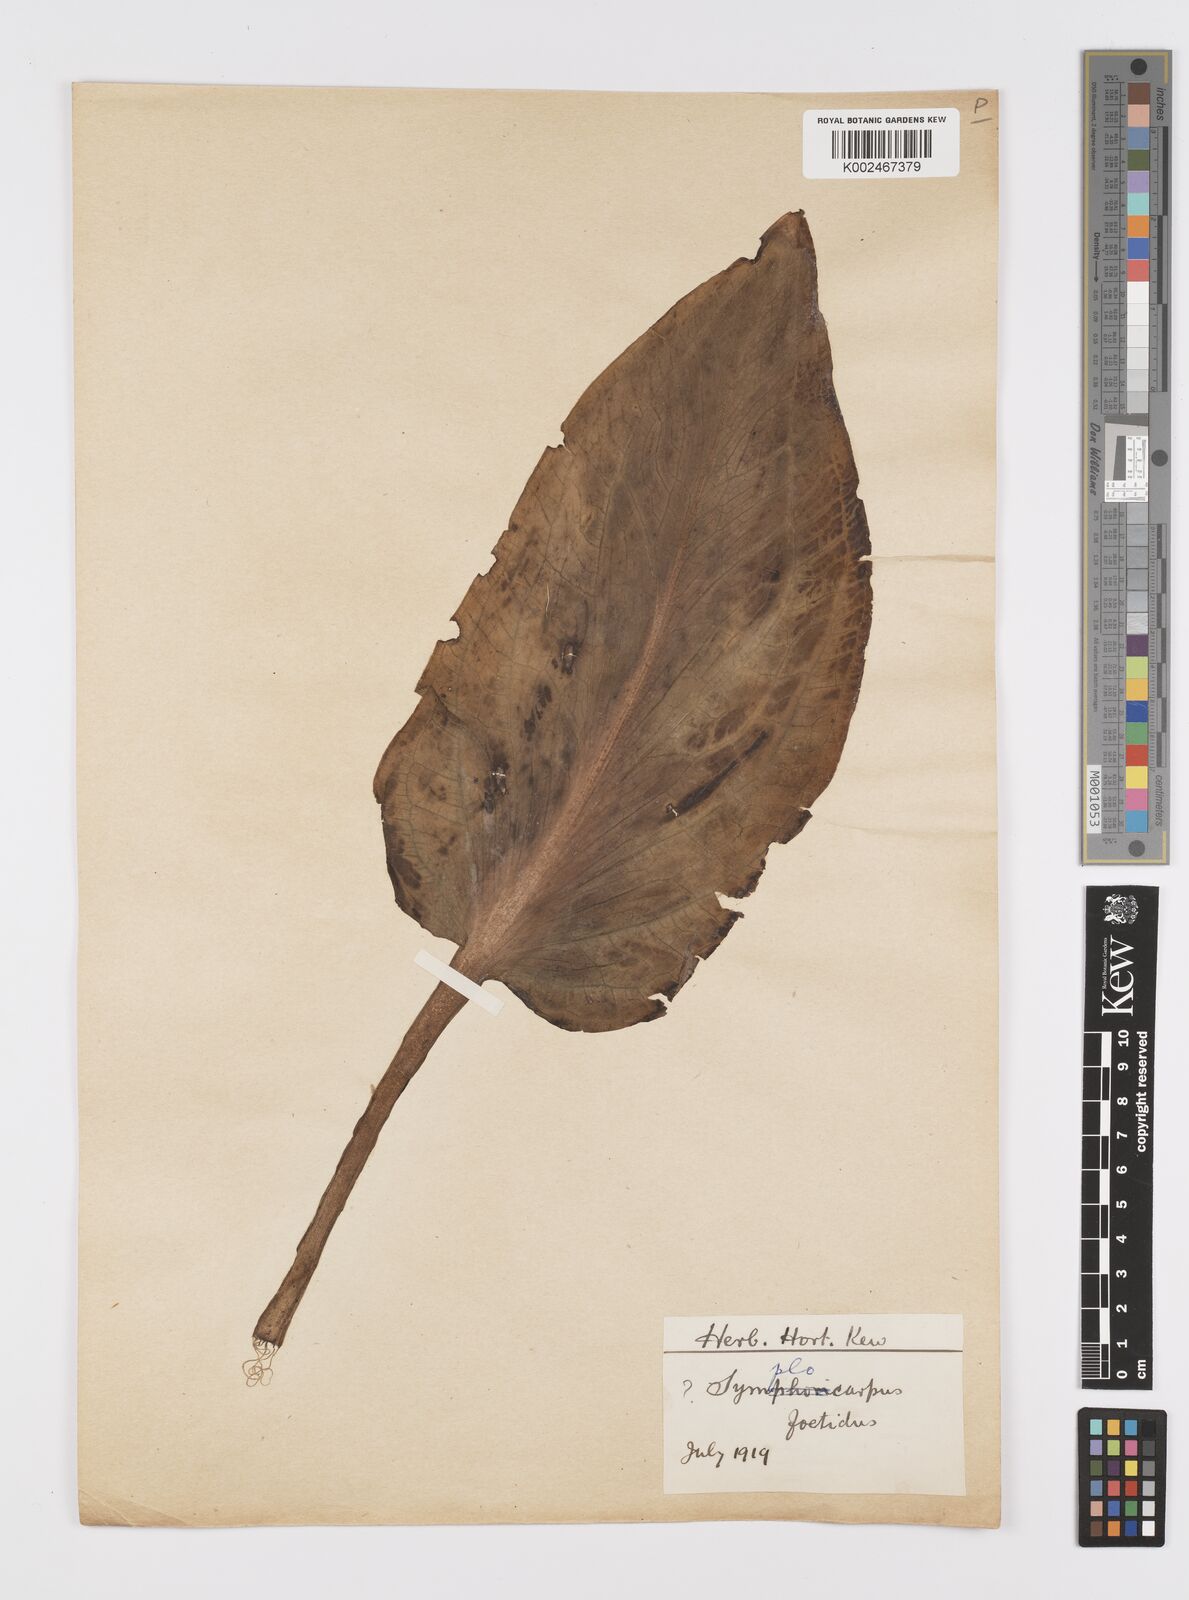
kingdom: Plantae
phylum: Tracheophyta
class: Liliopsida
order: Alismatales
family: Araceae
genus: Symplocarpus
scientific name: Symplocarpus foetidus
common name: Eastern skunk cabbage
